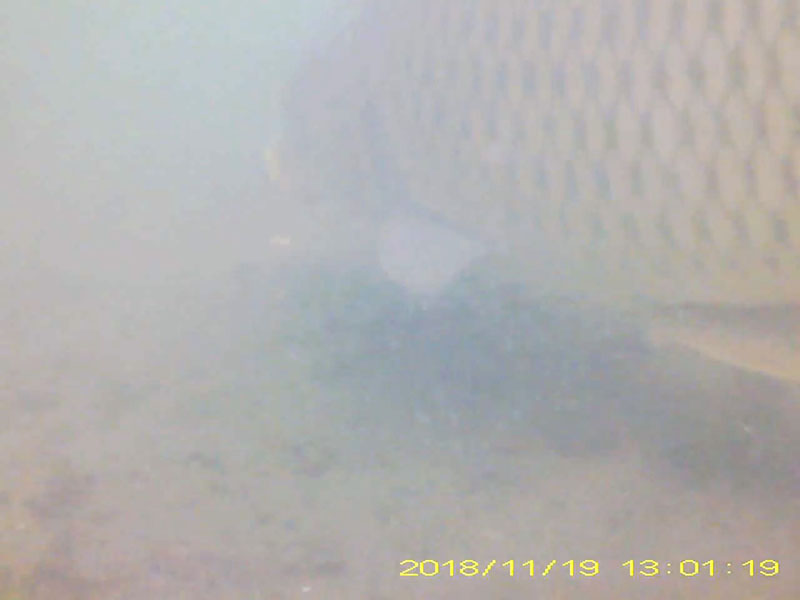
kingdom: Animalia
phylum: Chordata
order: Cypriniformes
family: Cyprinidae
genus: Cyprinus
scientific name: Cyprinus carpio
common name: コイ
